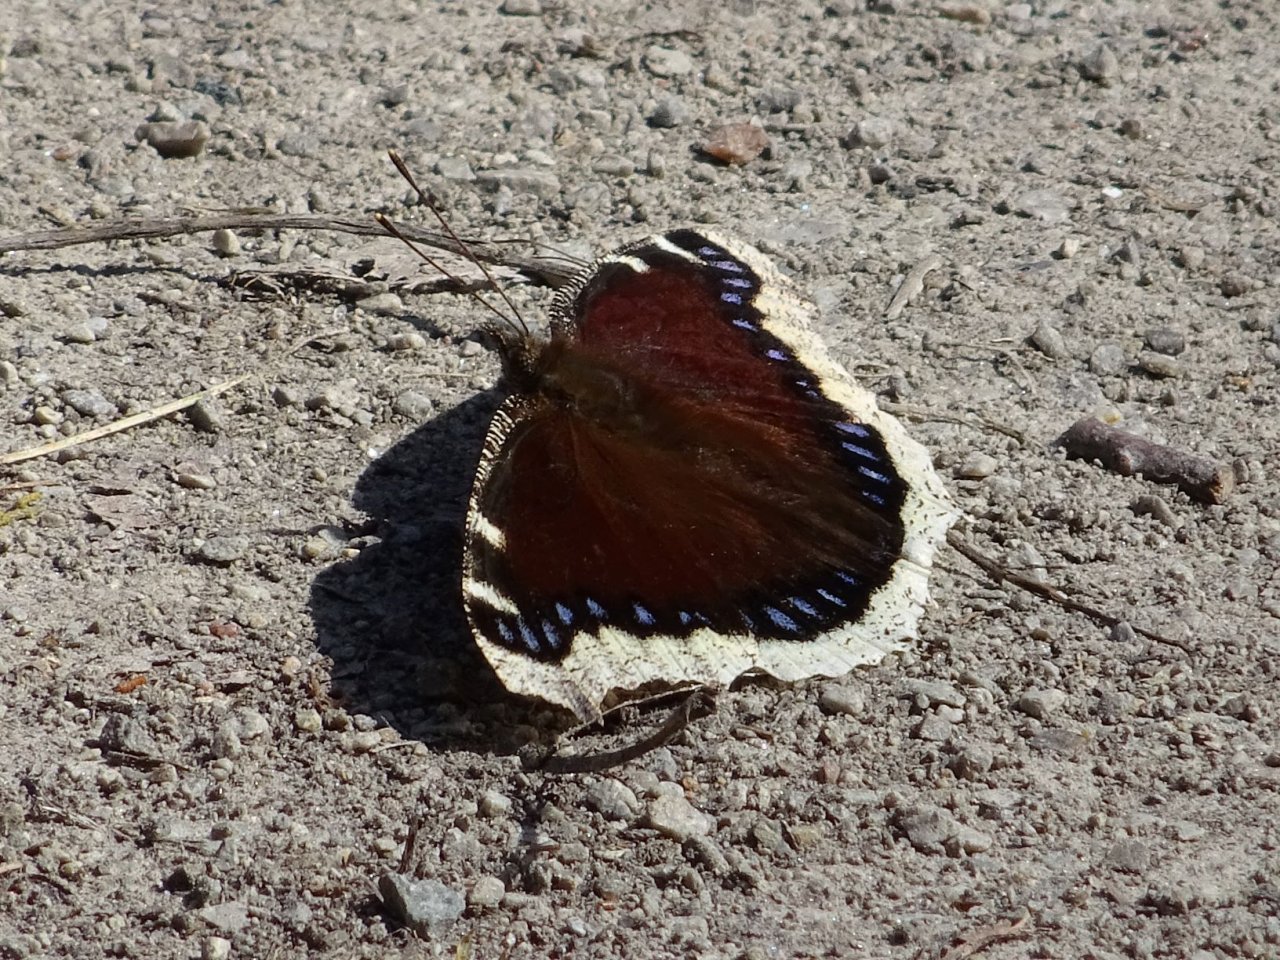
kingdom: Animalia
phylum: Arthropoda
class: Insecta
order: Lepidoptera
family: Nymphalidae
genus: Nymphalis
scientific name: Nymphalis antiopa
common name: Mourning Cloak
